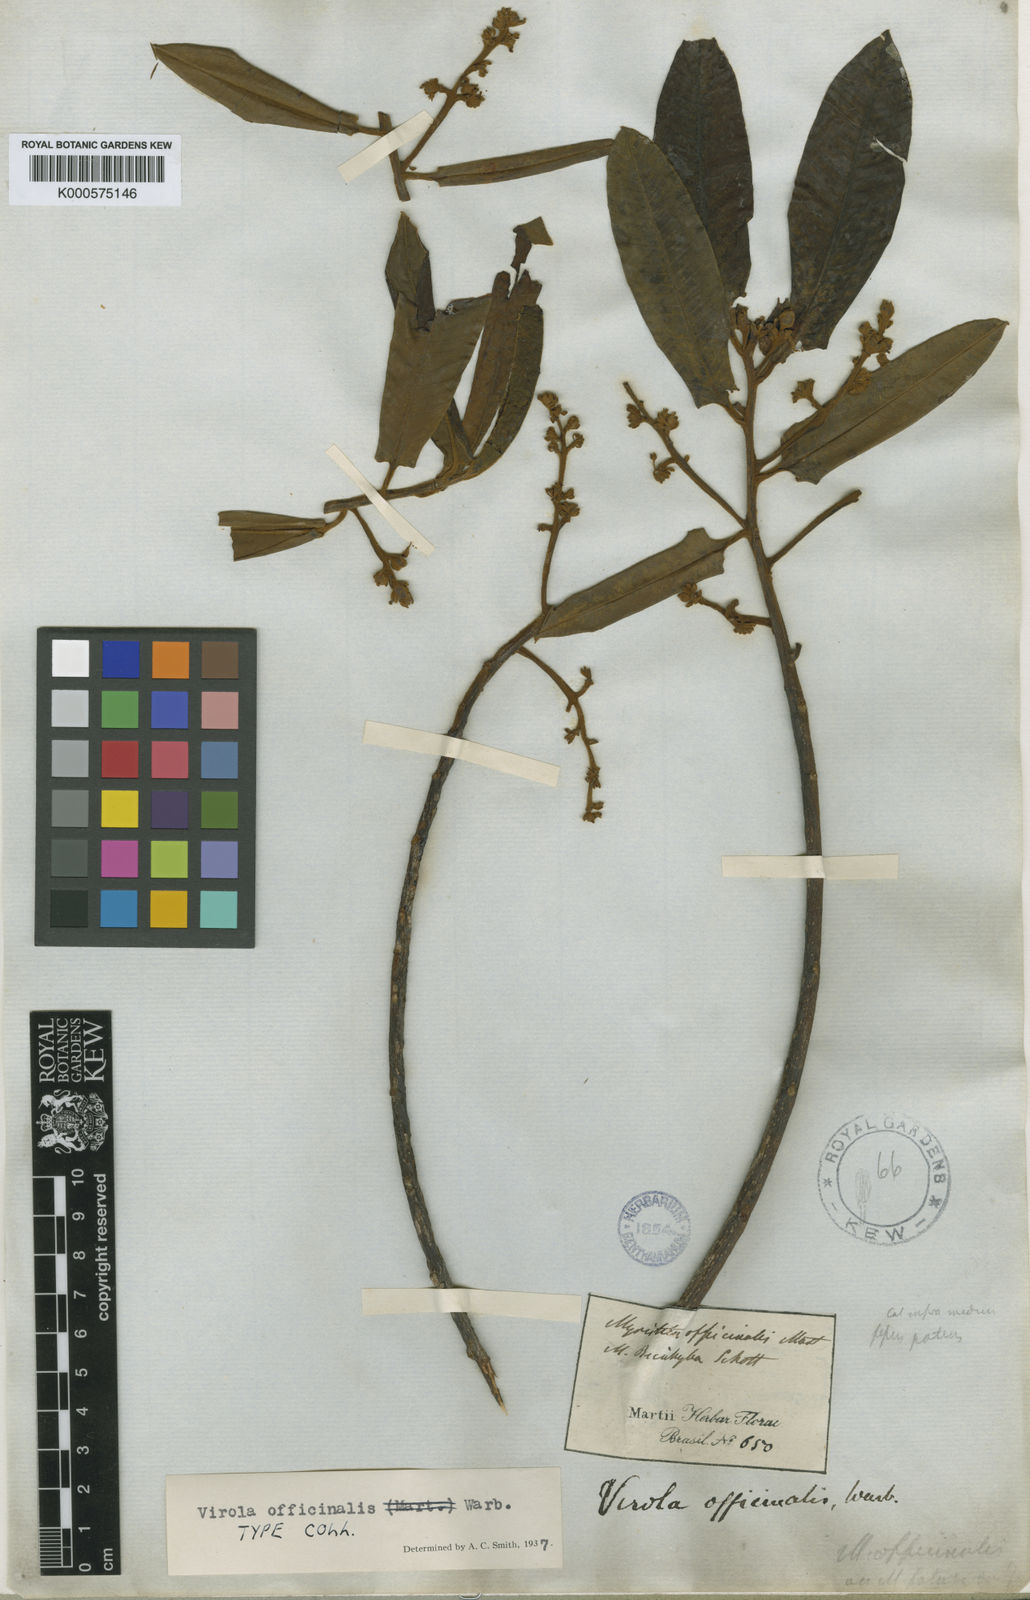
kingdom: Plantae
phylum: Tracheophyta
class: Magnoliopsida
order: Magnoliales
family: Myristicaceae
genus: Virola
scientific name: Virola officinalis
